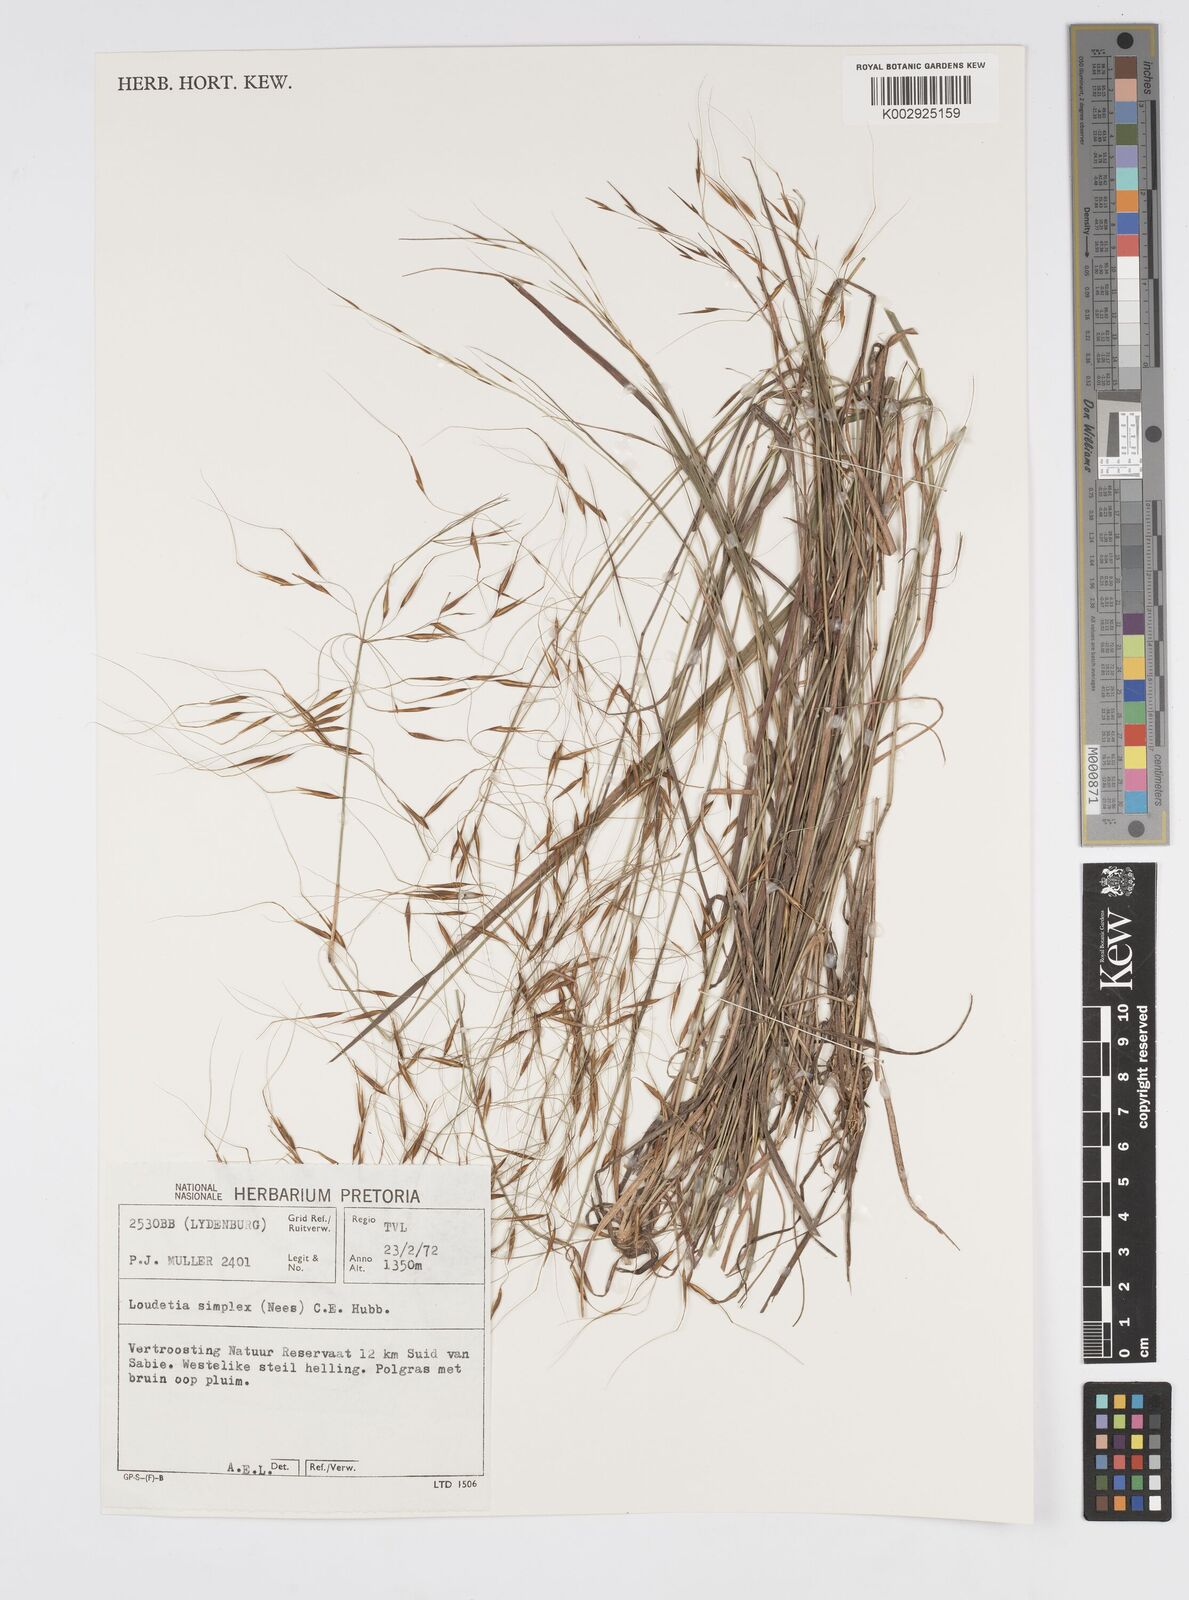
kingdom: Plantae
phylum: Tracheophyta
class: Liliopsida
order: Poales
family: Poaceae
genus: Loudetia
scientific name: Loudetia simplex
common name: Common russet grass
